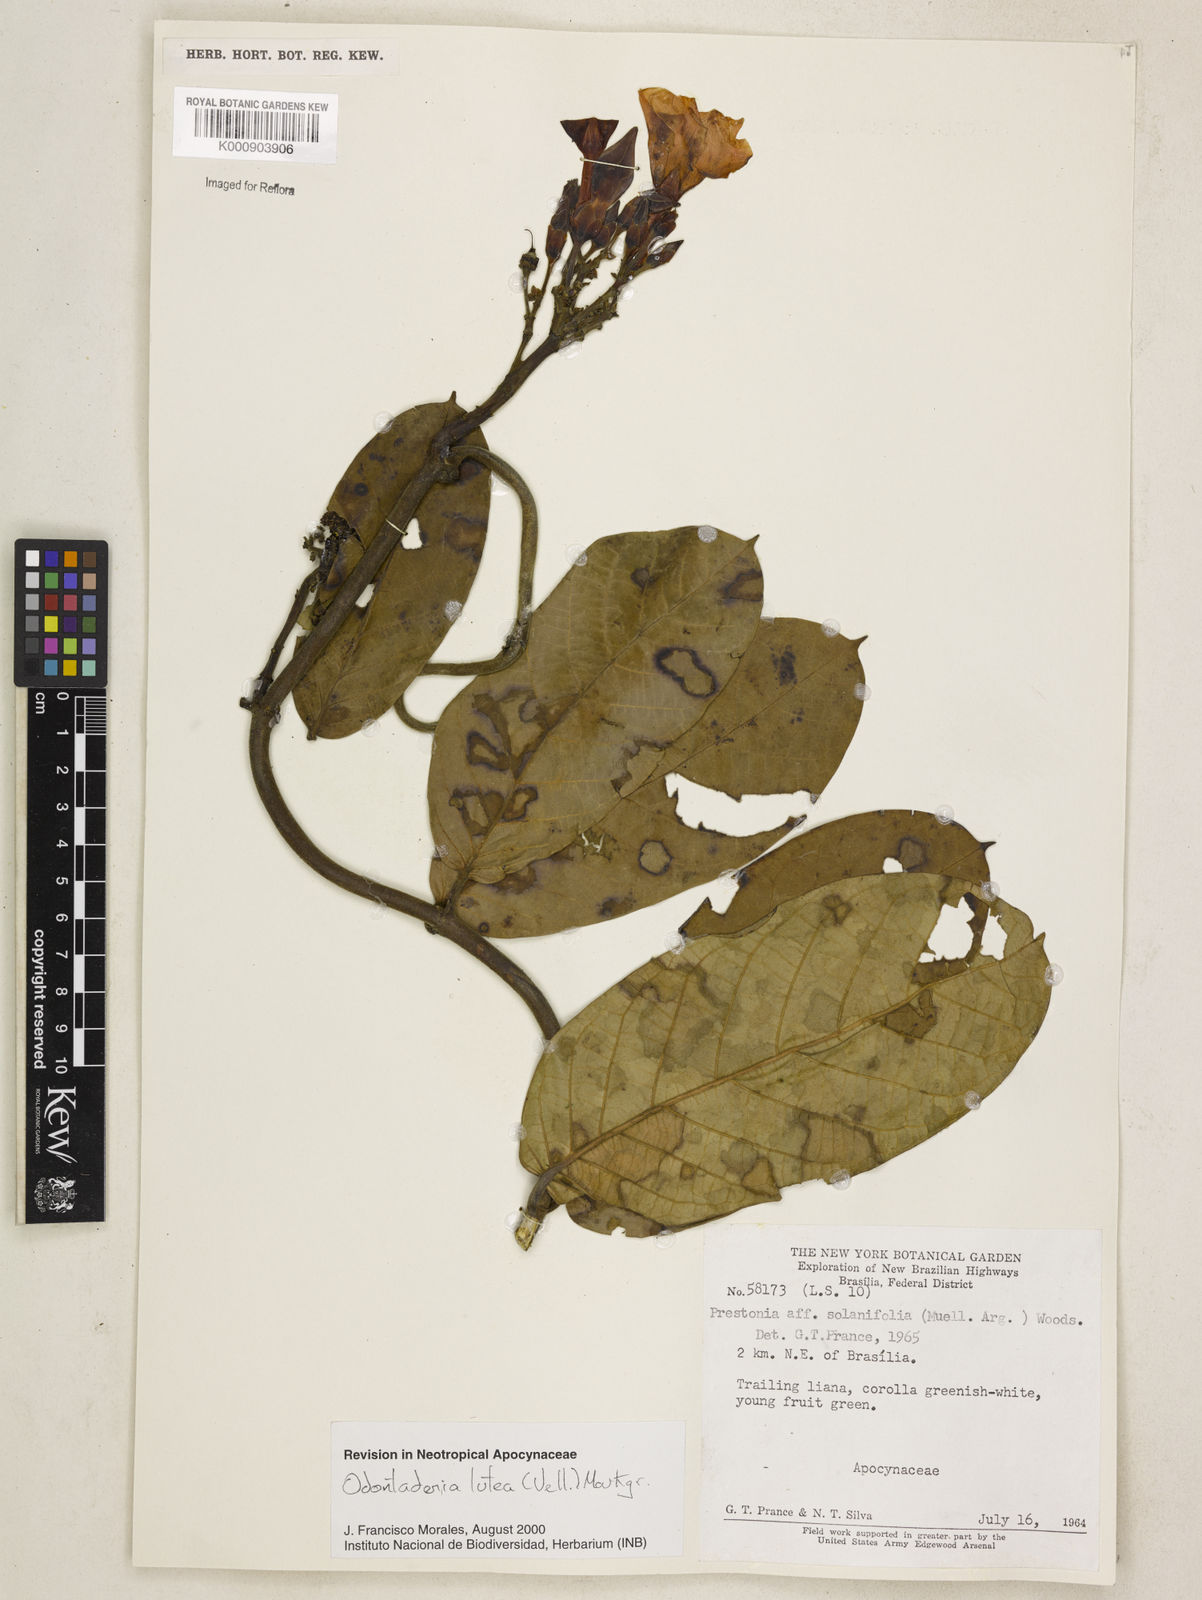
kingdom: Plantae
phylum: Tracheophyta
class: Magnoliopsida
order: Gentianales
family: Apocynaceae
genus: Odontadenia
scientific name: Odontadenia lutea
